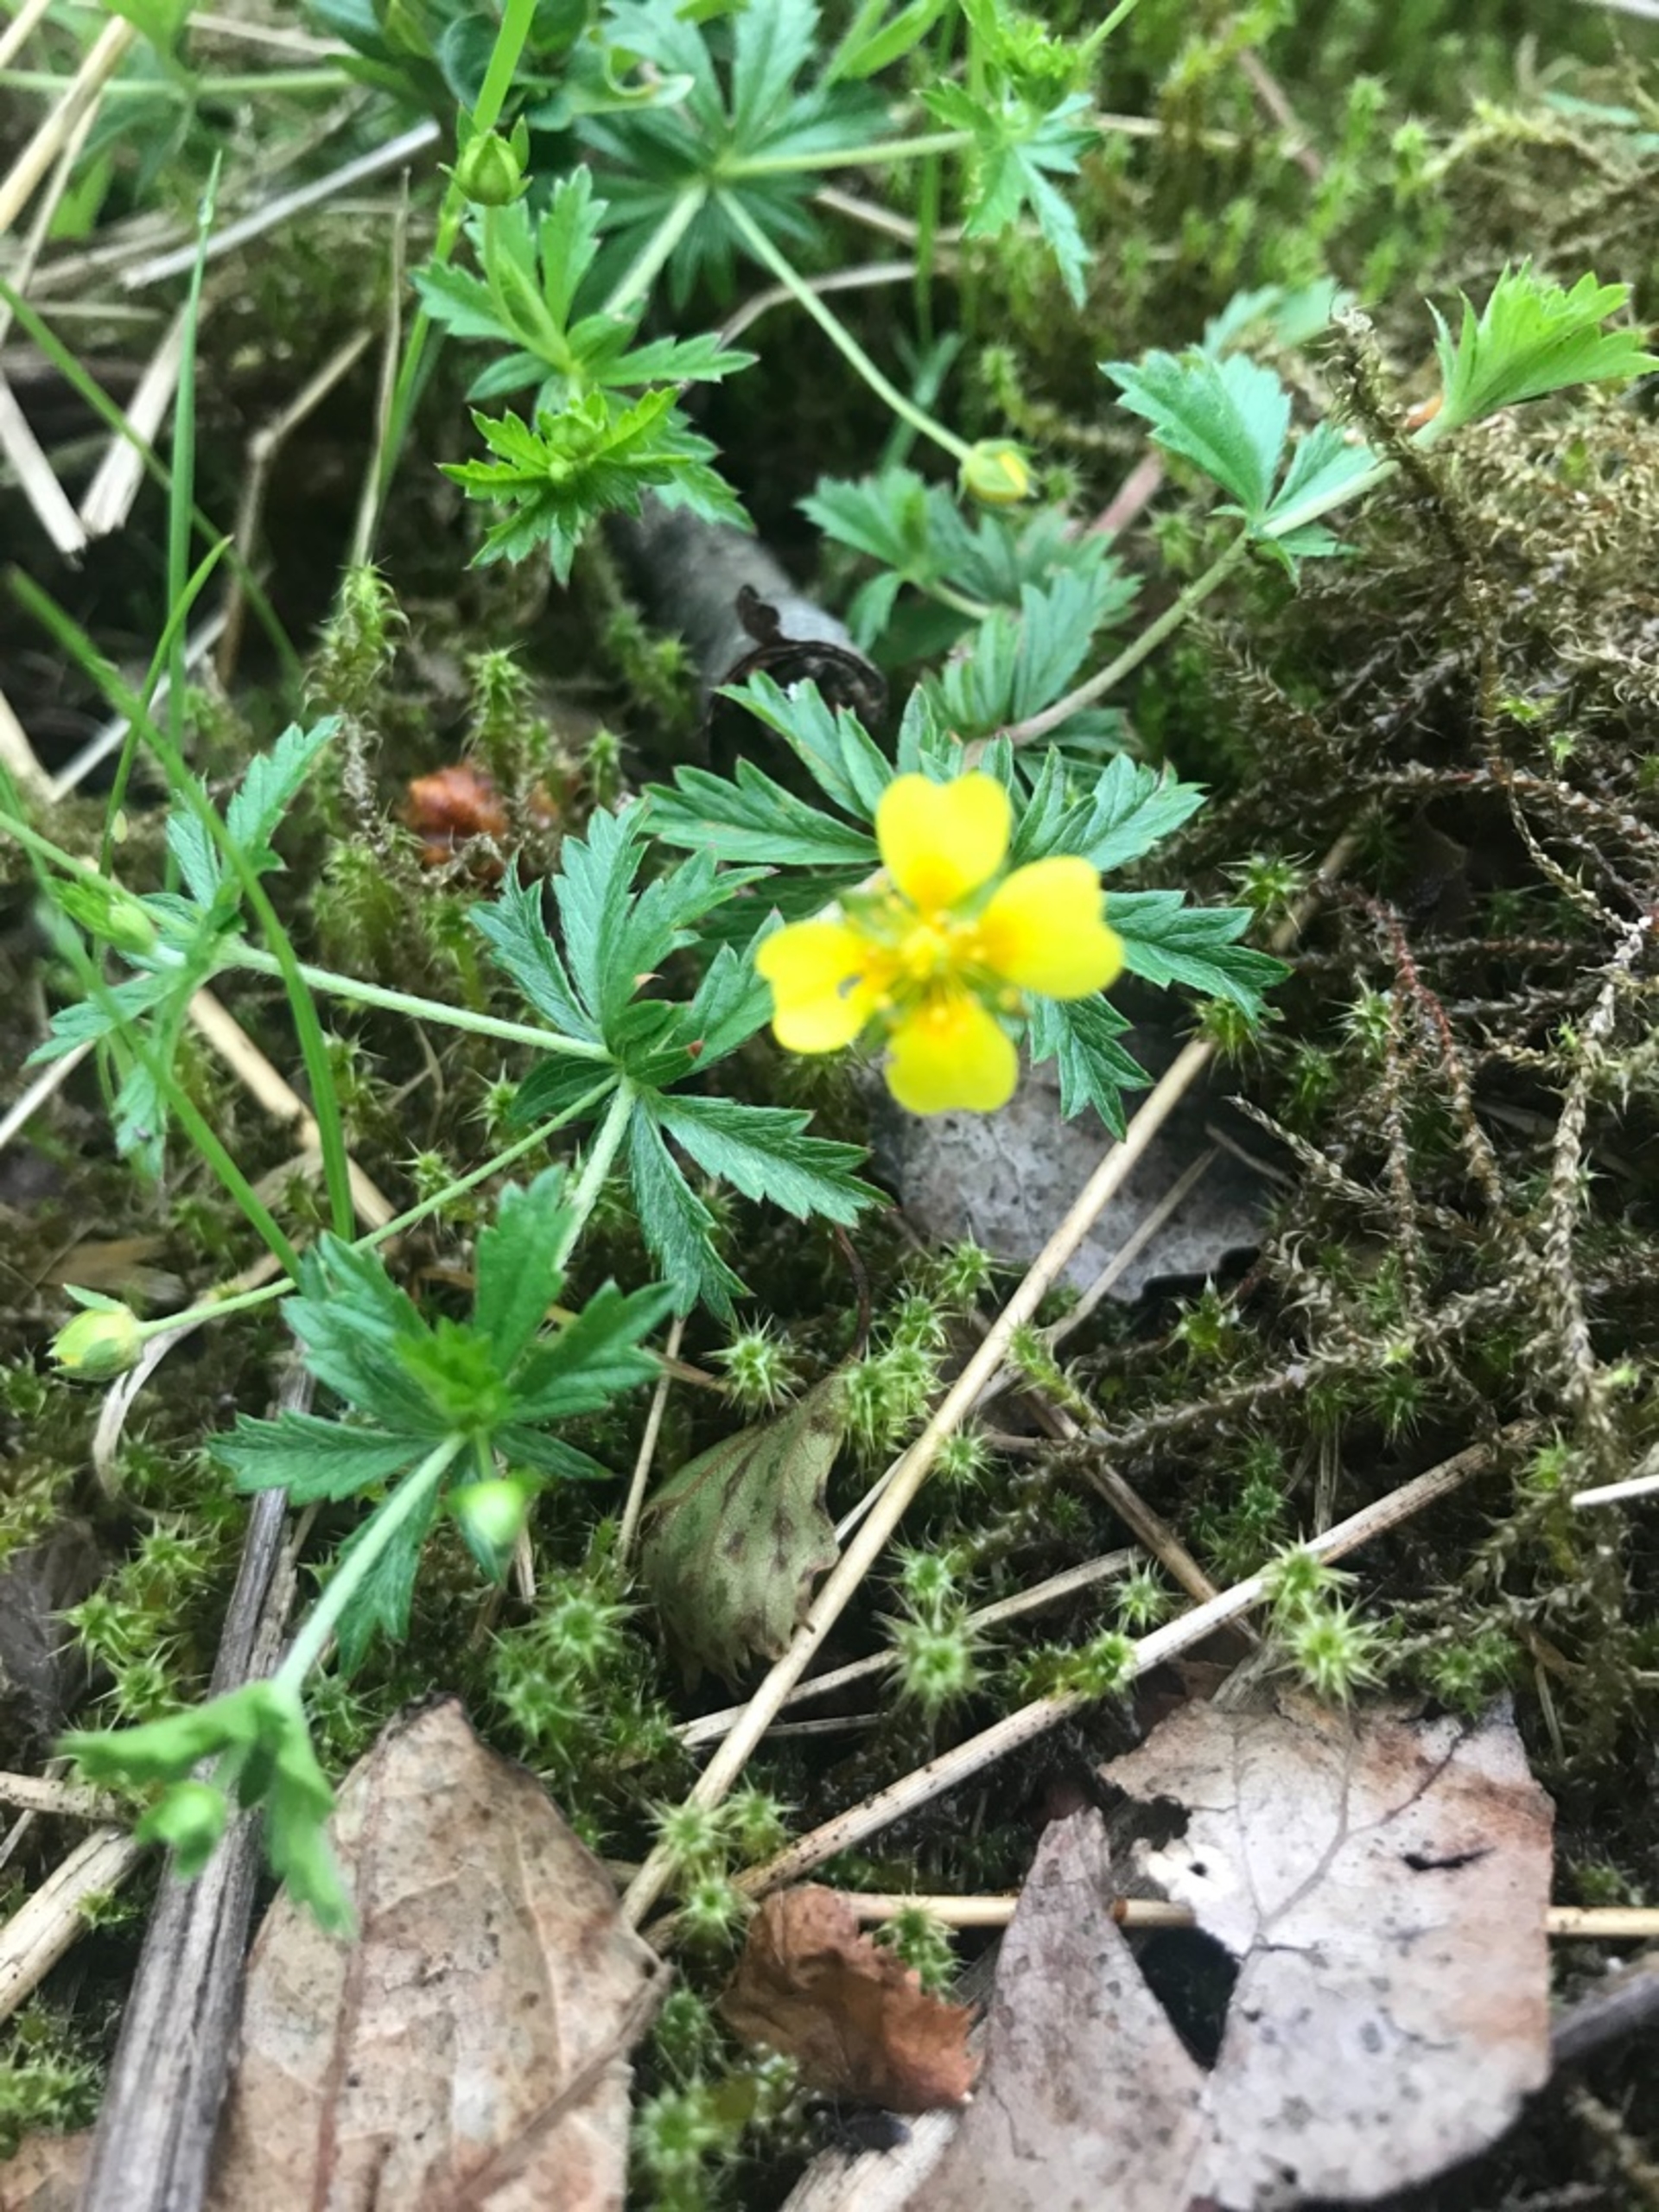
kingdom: Plantae
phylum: Tracheophyta
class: Magnoliopsida
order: Rosales
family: Rosaceae
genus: Potentilla
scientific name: Potentilla erecta
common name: Tormentil
